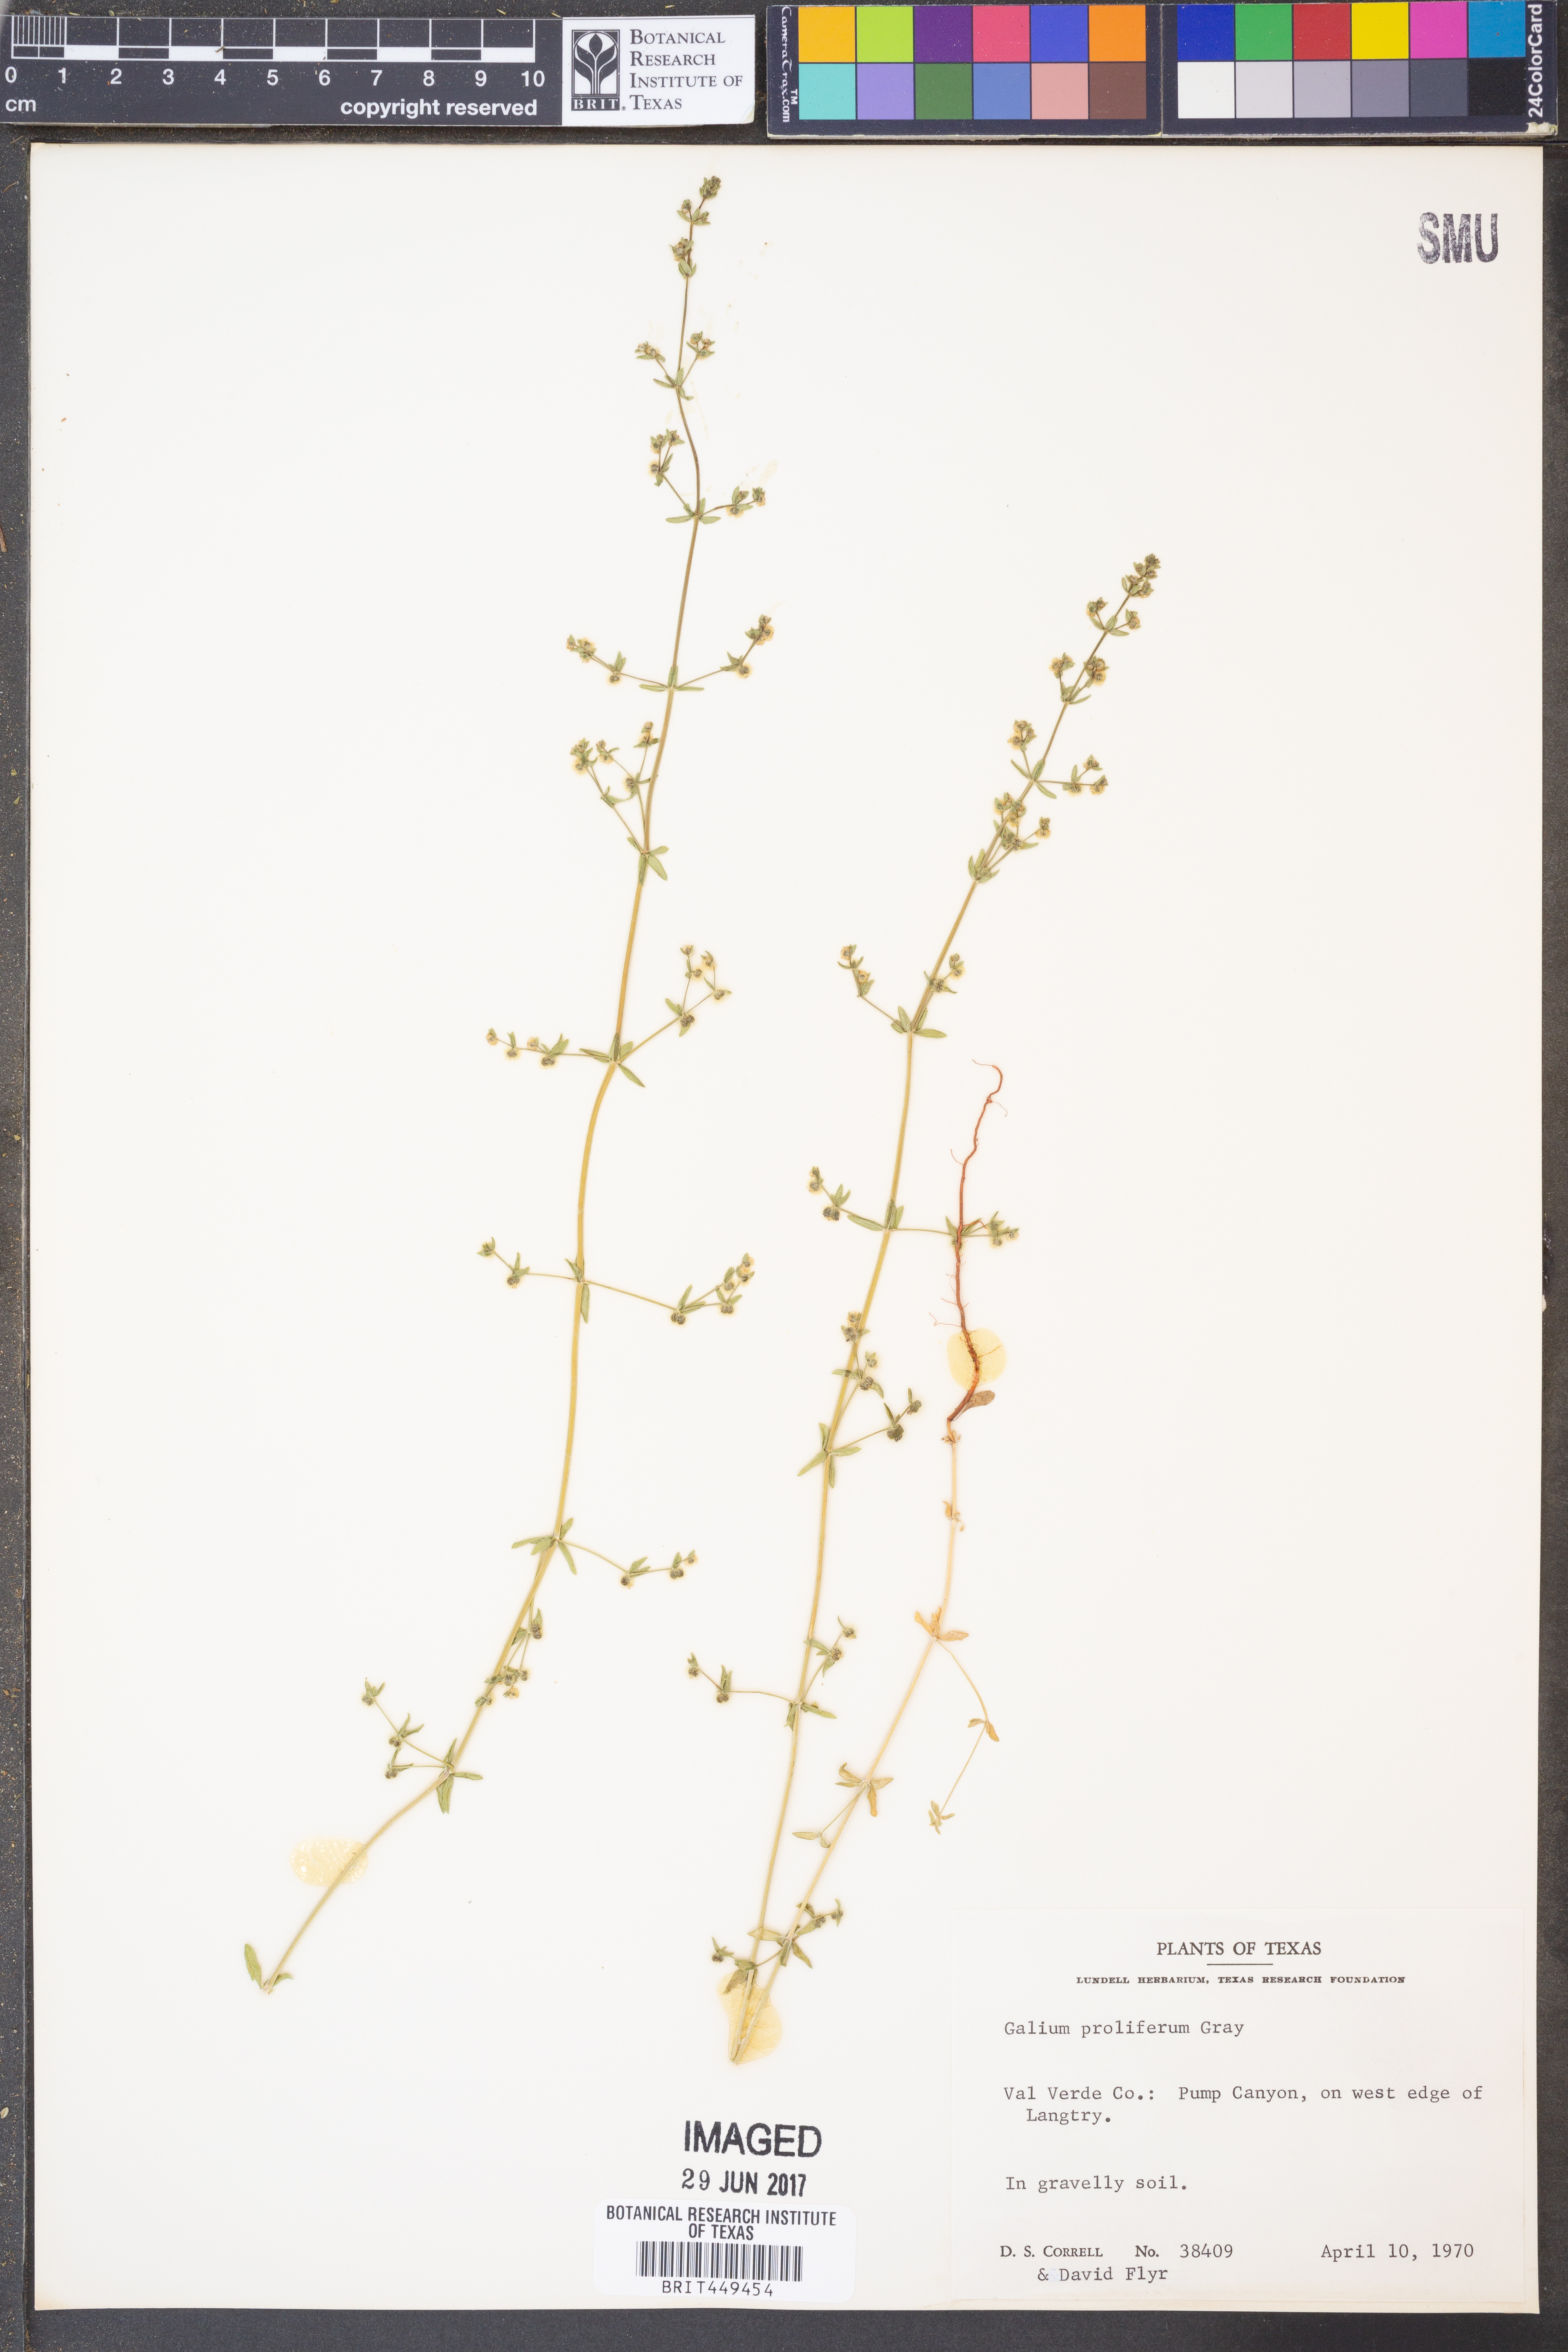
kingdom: Plantae
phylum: Tracheophyta
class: Magnoliopsida
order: Gentianales
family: Rubiaceae
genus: Galium
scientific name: Galium proliferum
